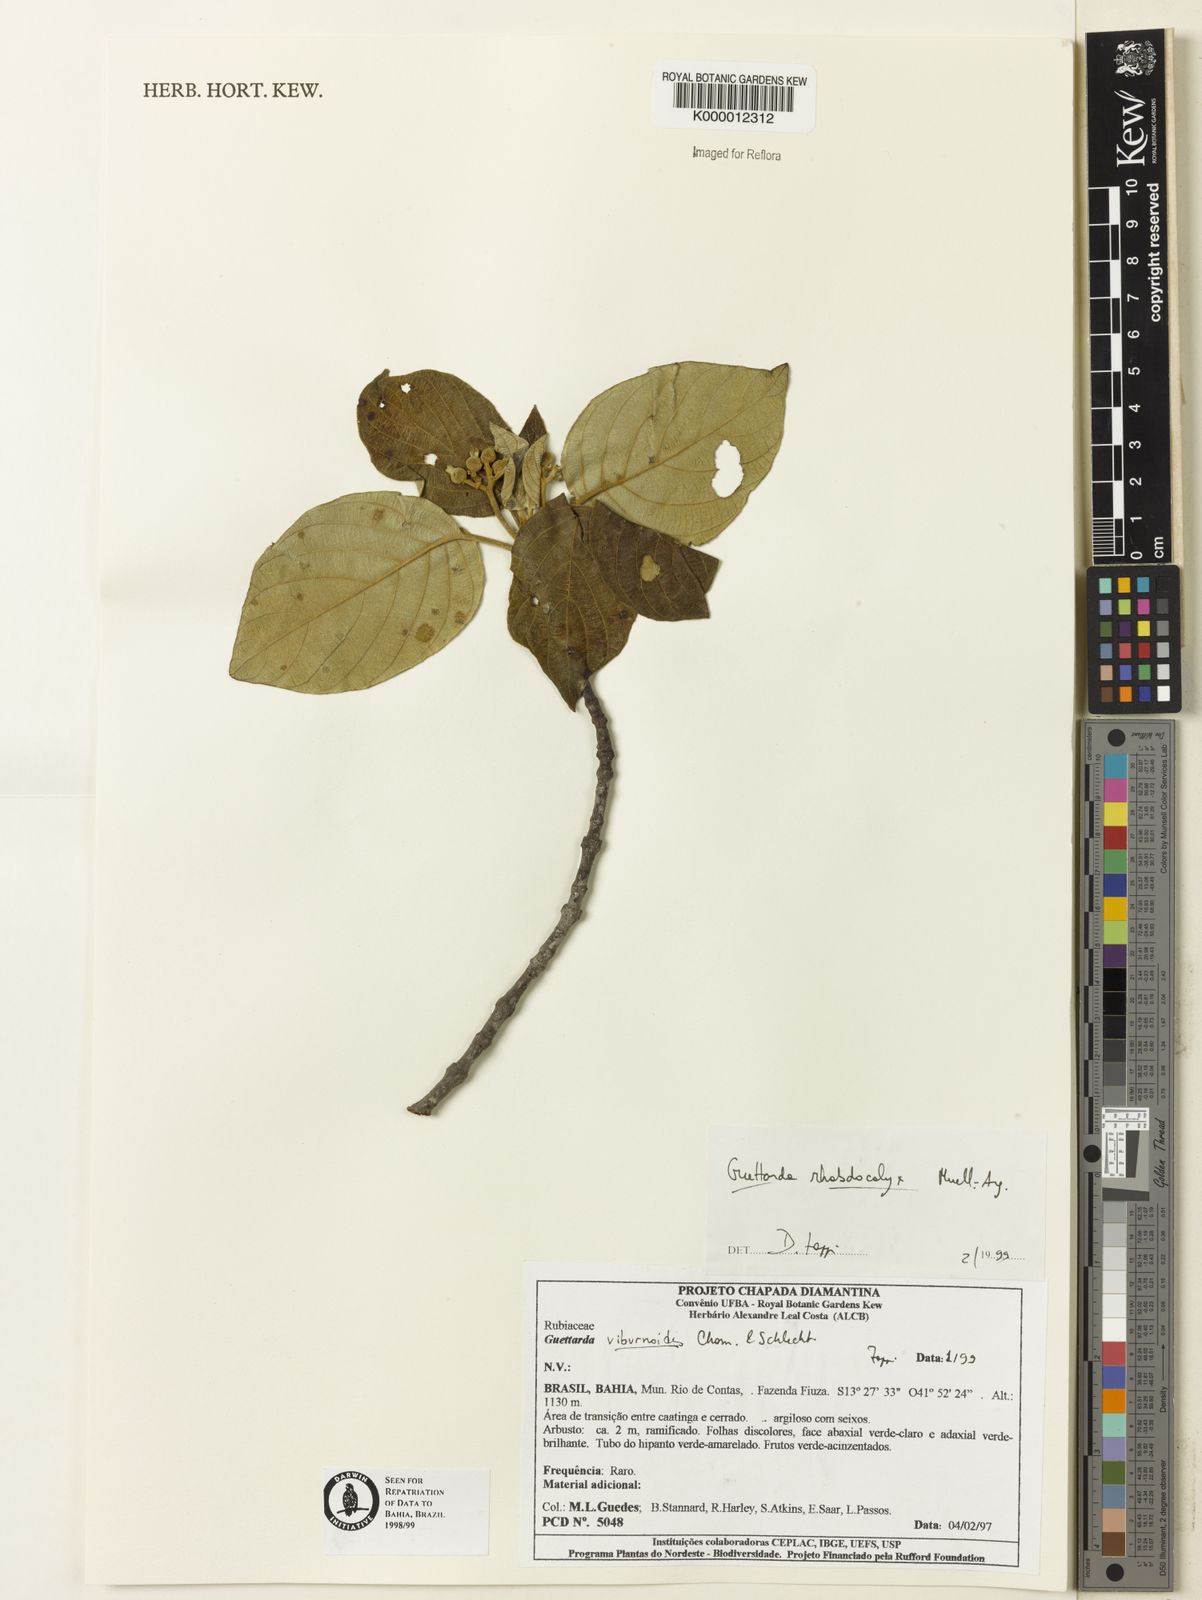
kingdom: Plantae
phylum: Tracheophyta
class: Magnoliopsida
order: Gentianales
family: Rubiaceae
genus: Guettarda
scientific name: Guettarda rhabdocalyx
